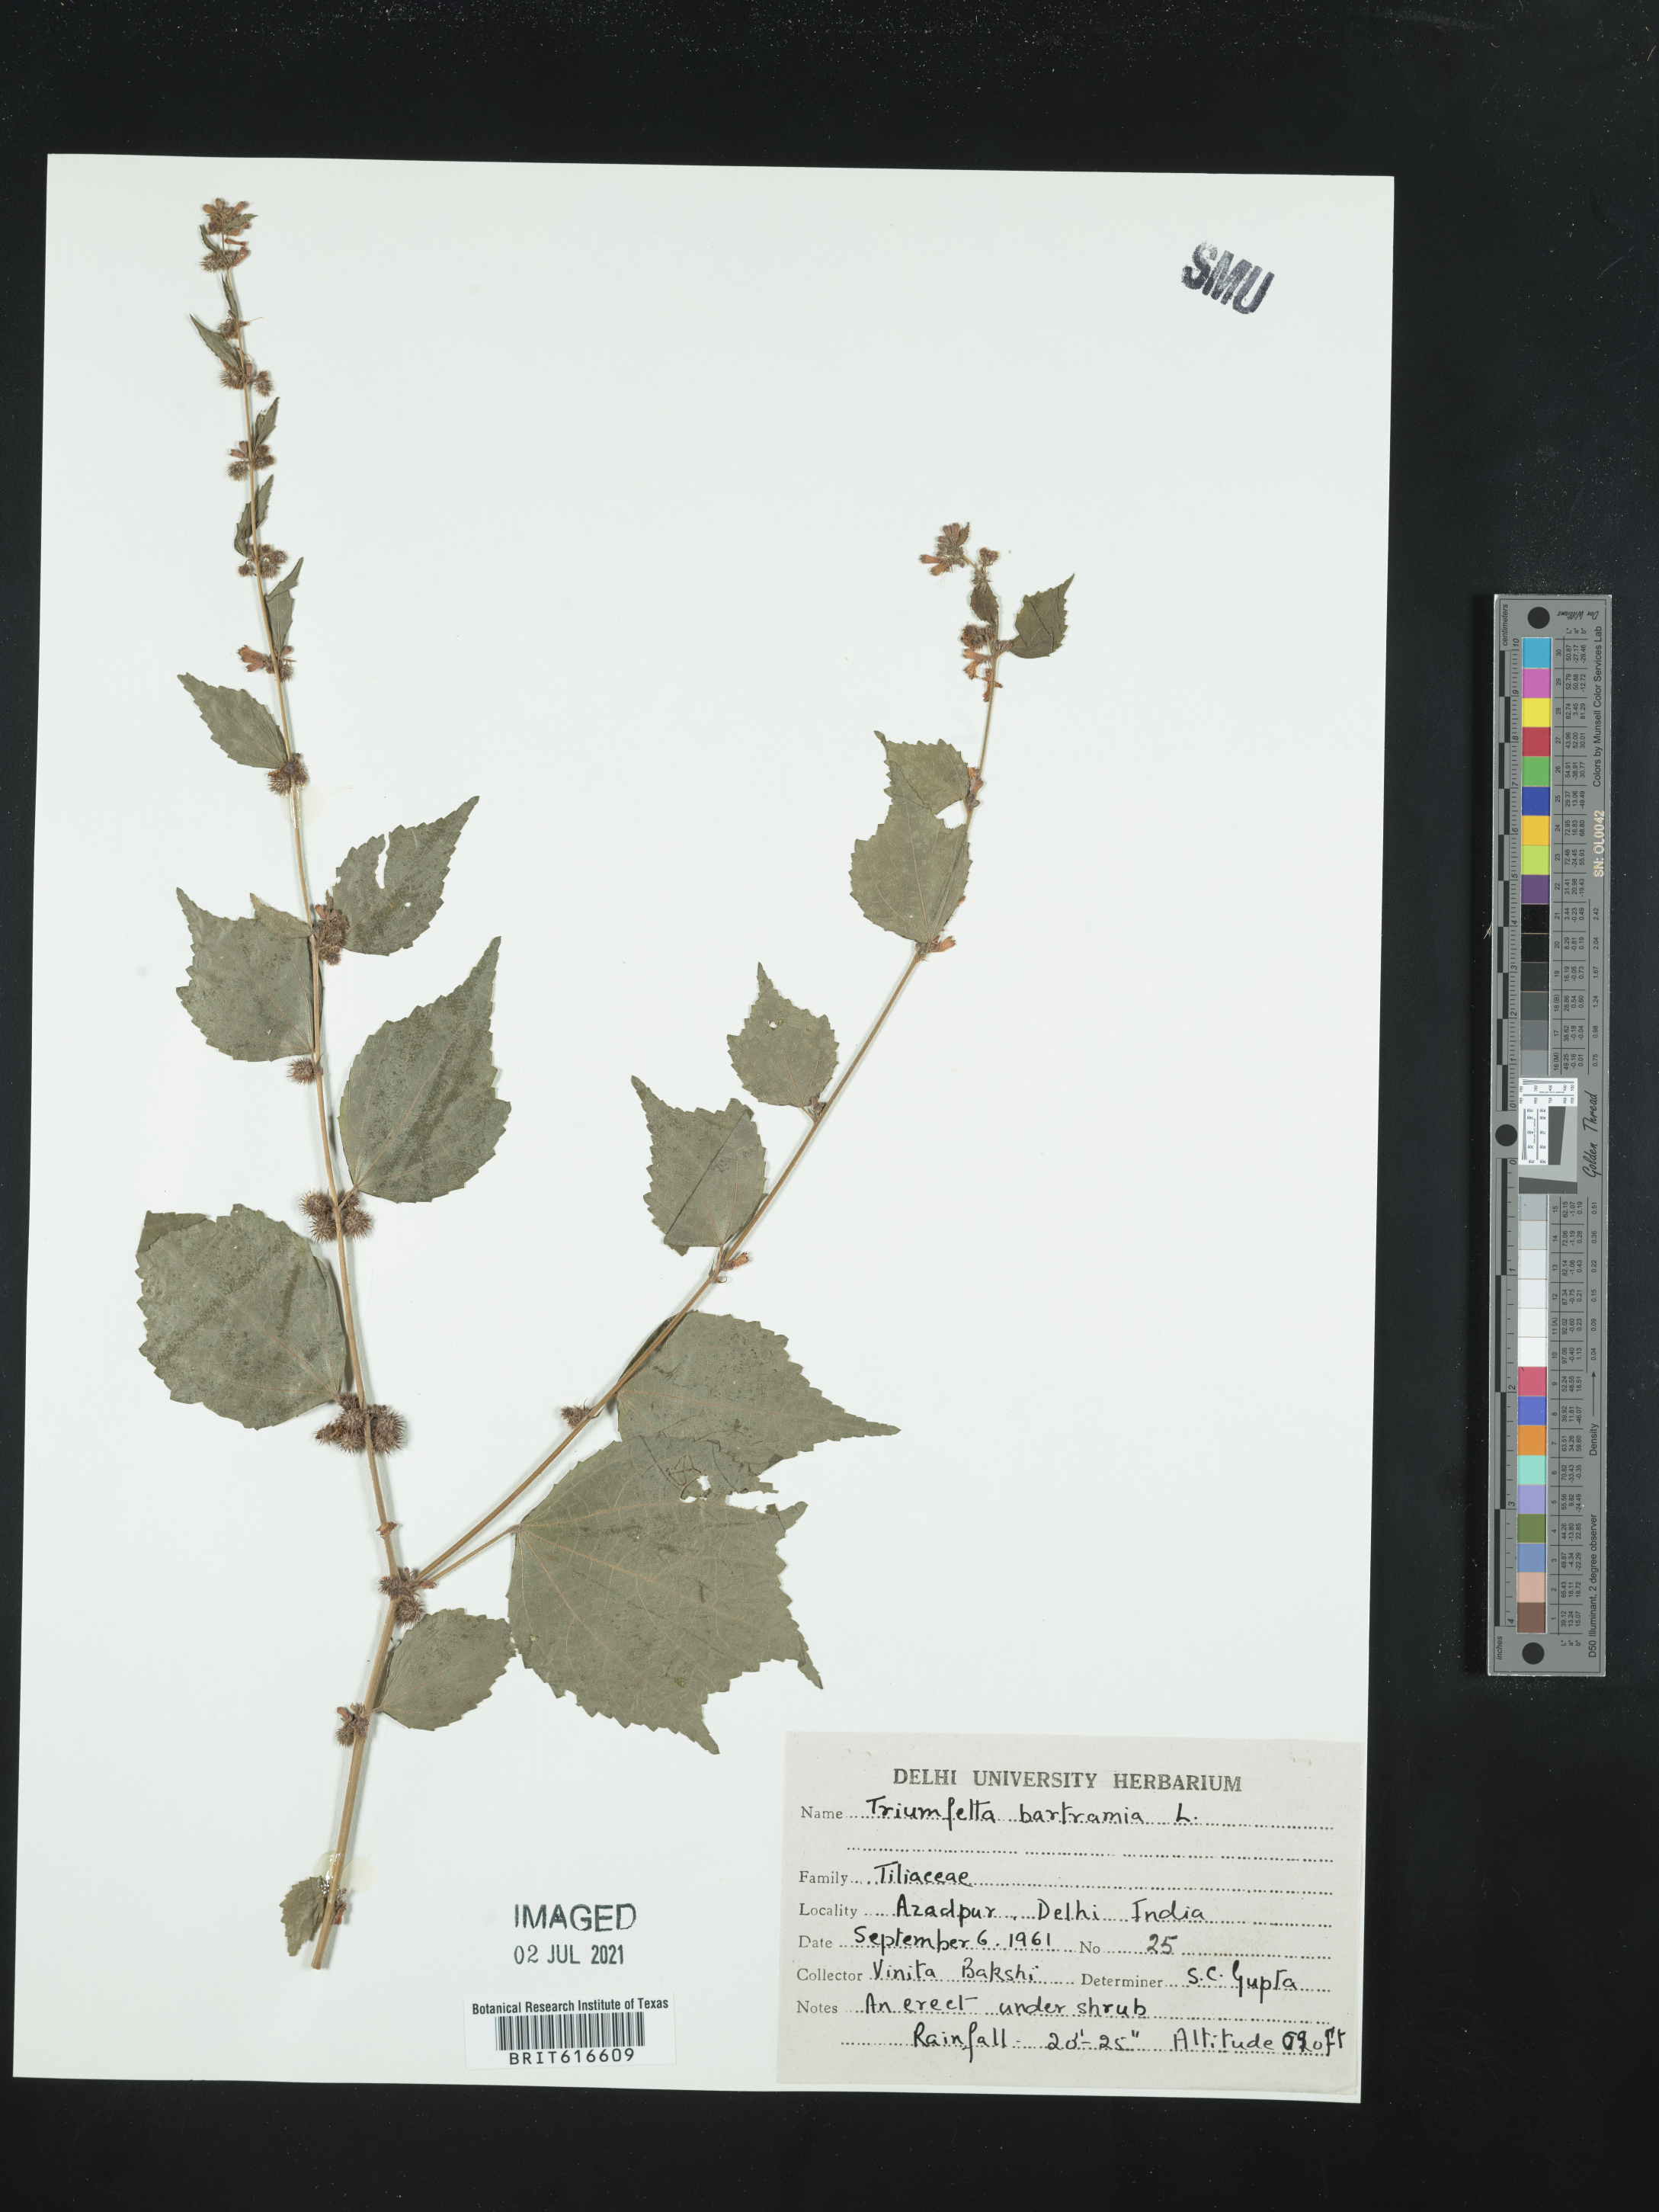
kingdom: Plantae
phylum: Tracheophyta
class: Magnoliopsida
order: Malvales
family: Malvaceae
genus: Triumfetta
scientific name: Triumfetta rhomboidea
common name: Diamond burbark
